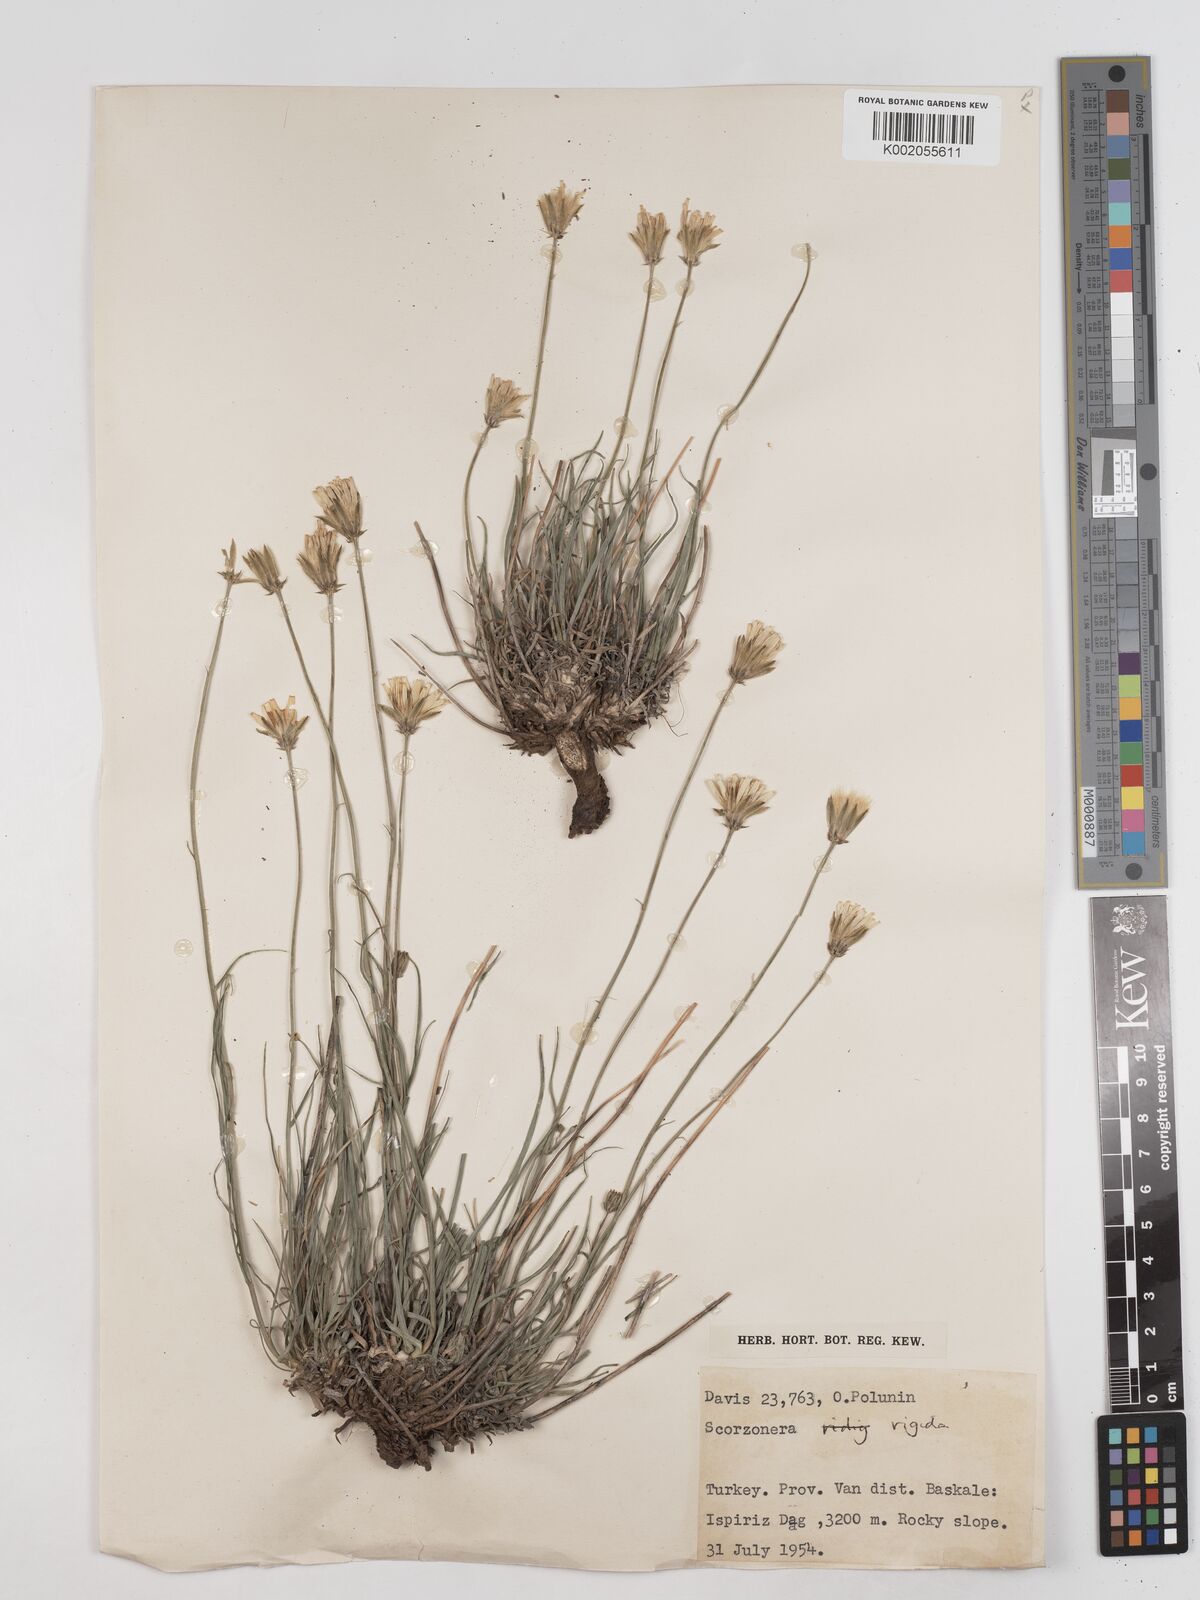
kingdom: Plantae
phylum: Tracheophyta
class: Magnoliopsida
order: Asterales
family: Asteraceae
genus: Scorzonera
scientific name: Scorzonera
